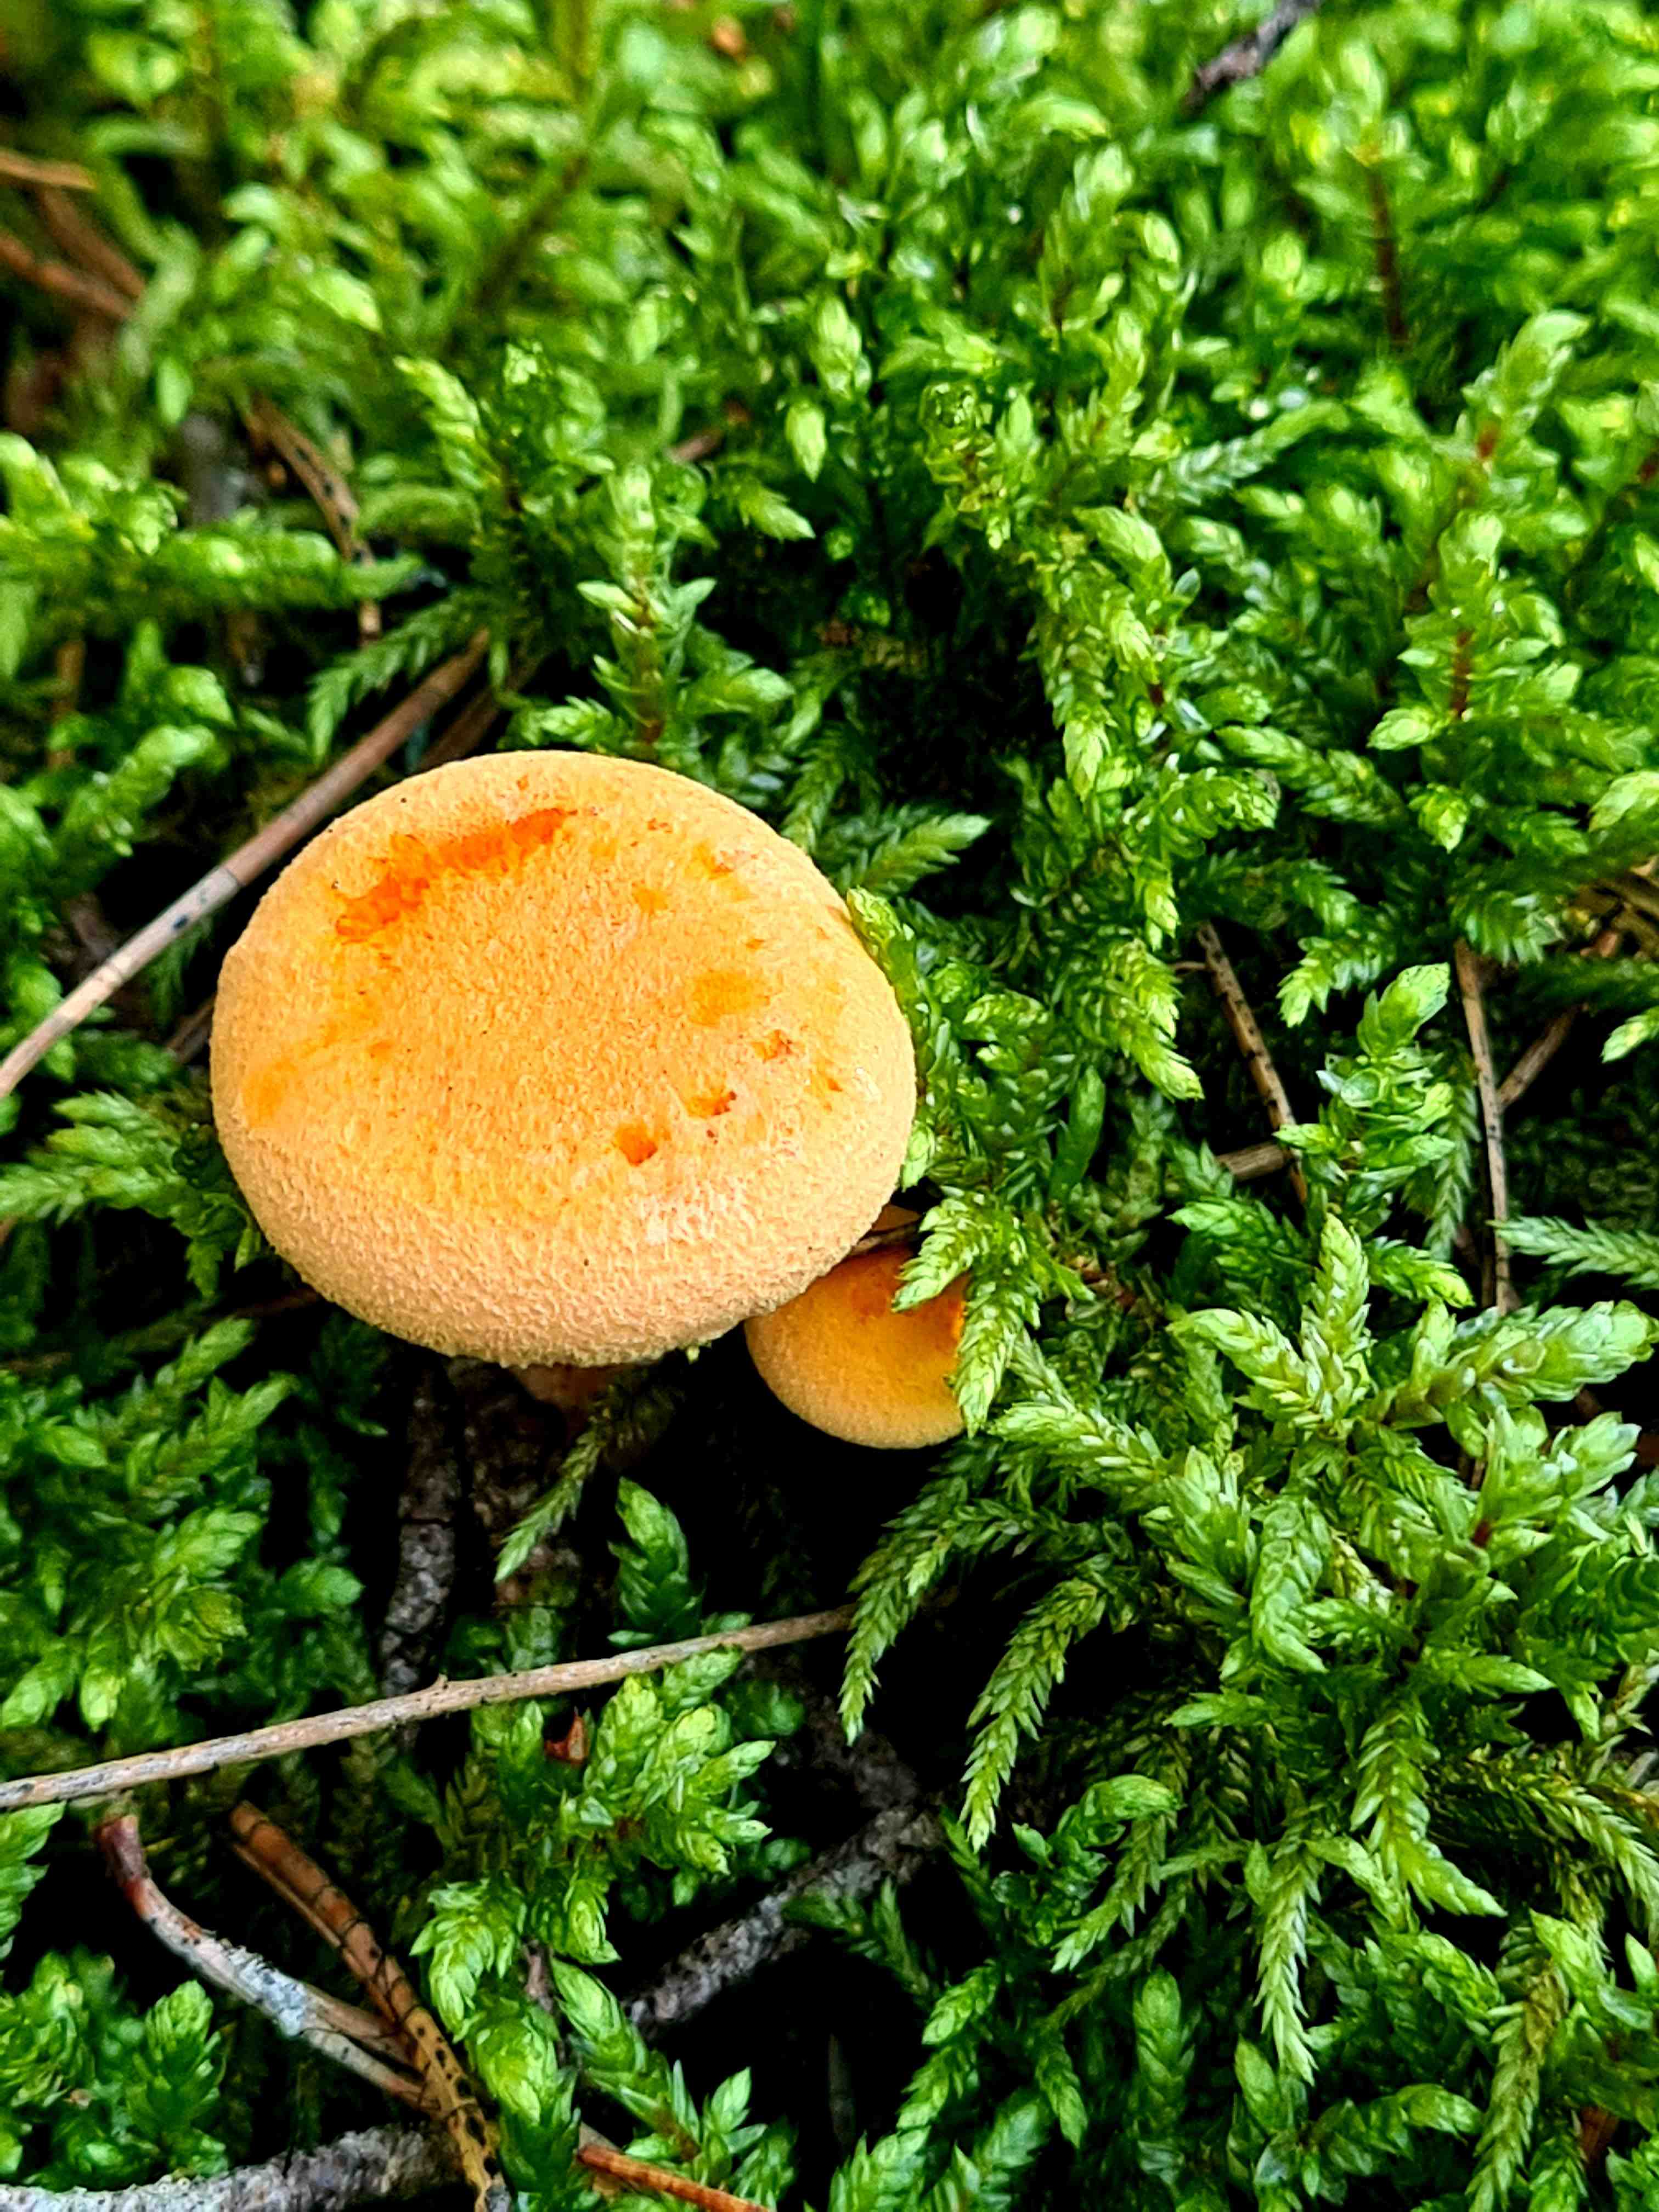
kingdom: Fungi
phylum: Basidiomycota
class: Agaricomycetes
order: Boletales
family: Hygrophoropsidaceae
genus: Hygrophoropsis
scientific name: Hygrophoropsis aurantiaca
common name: almindelig orangekantarel
